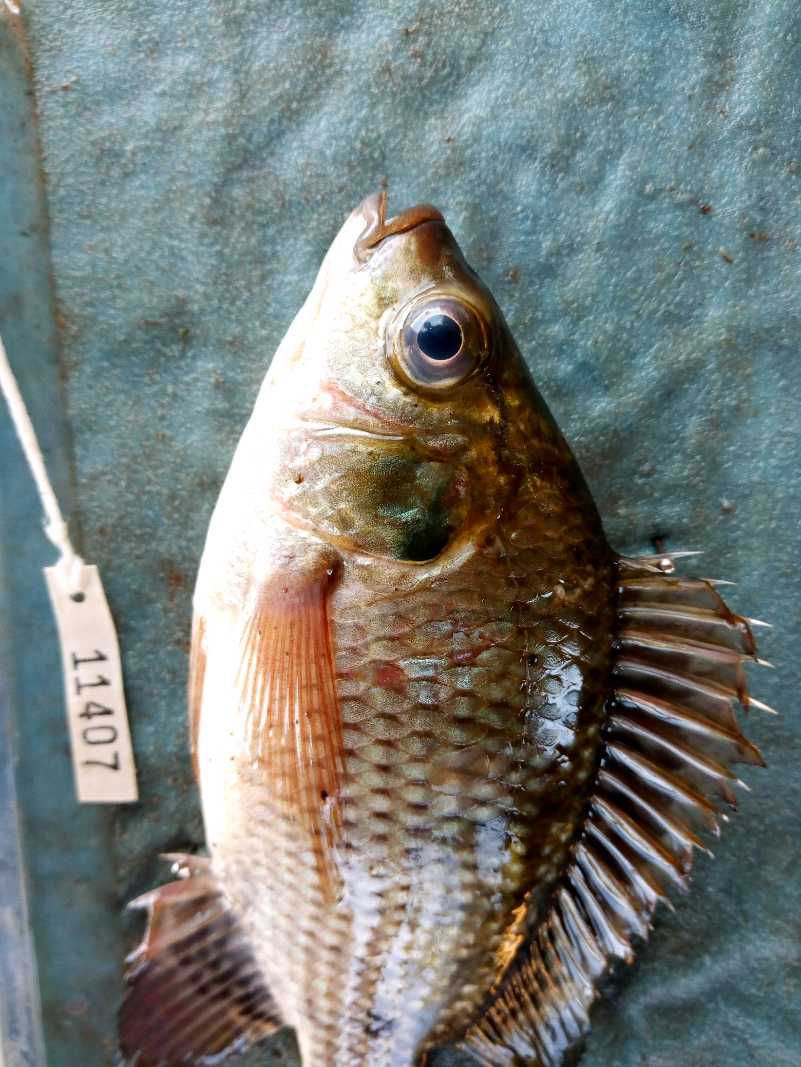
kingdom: Animalia
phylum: Chordata
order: Perciformes
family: Cichlidae
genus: Oreochromis
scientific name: Oreochromis niloticus
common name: Nile tilapia
